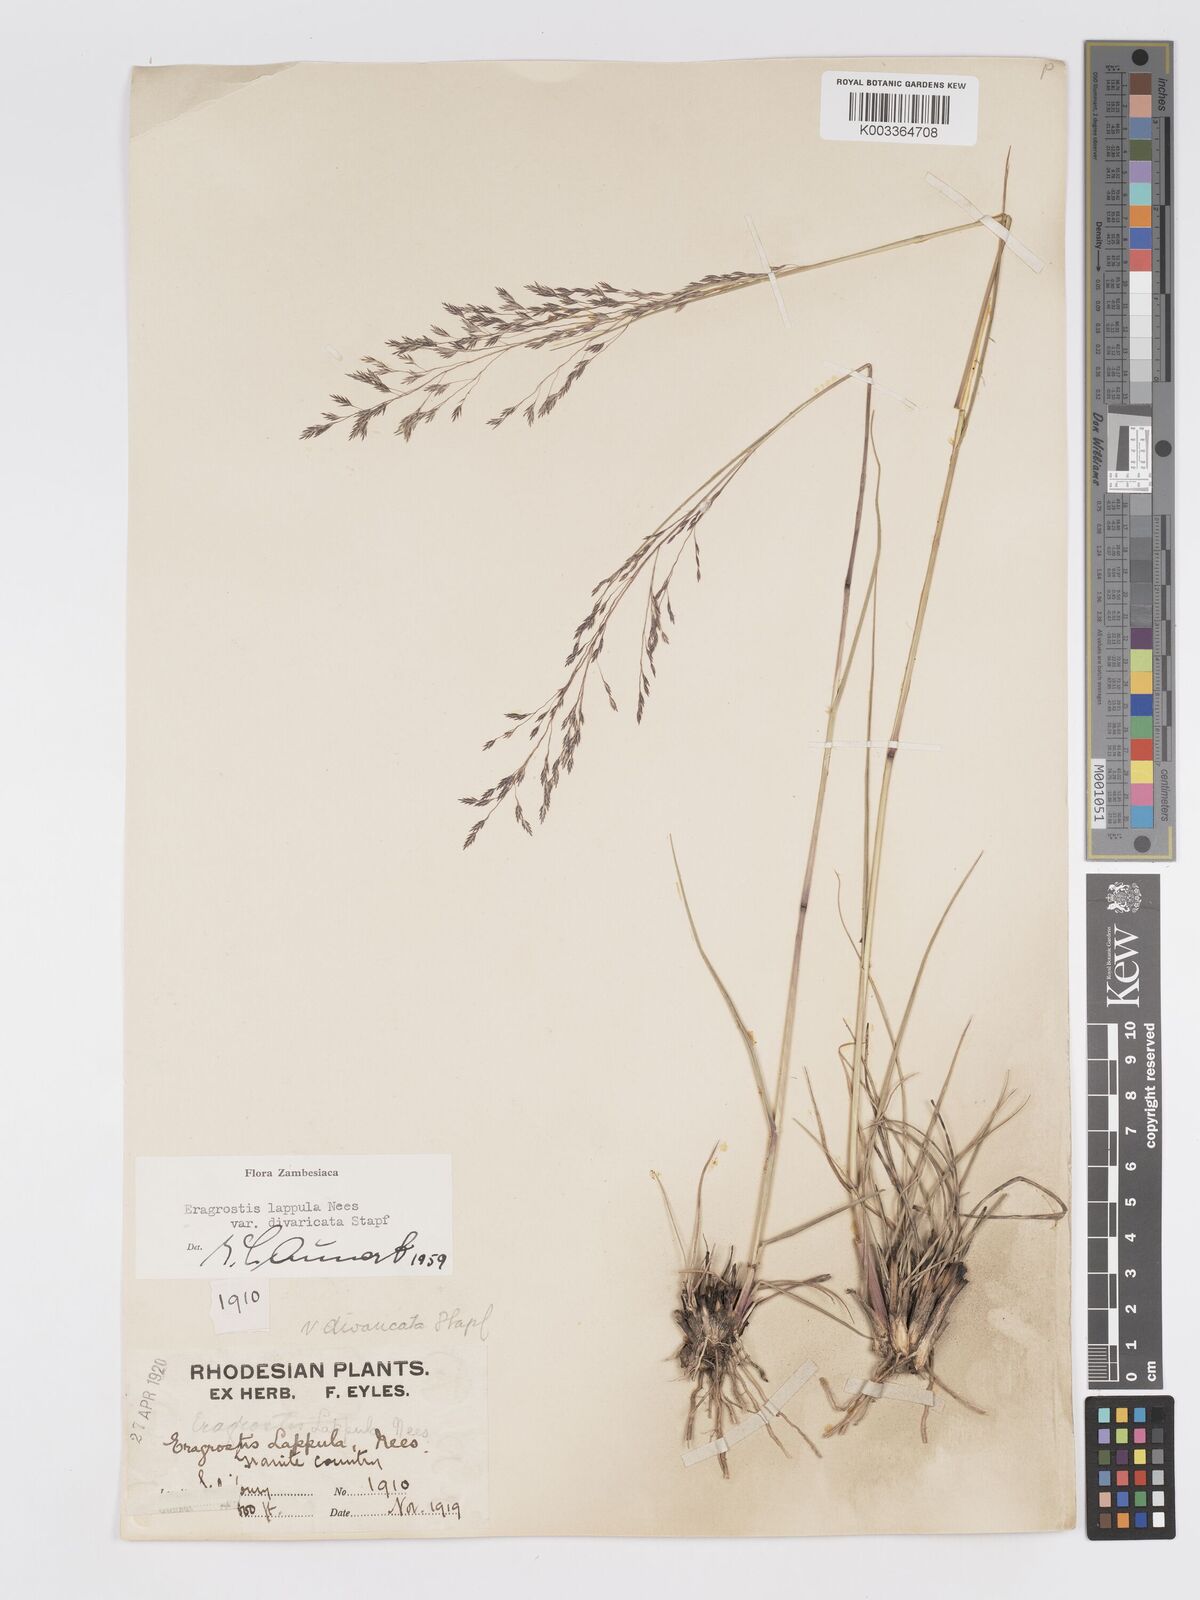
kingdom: Plantae
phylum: Tracheophyta
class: Liliopsida
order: Poales
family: Poaceae
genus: Eragrostis
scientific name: Eragrostis lappula
